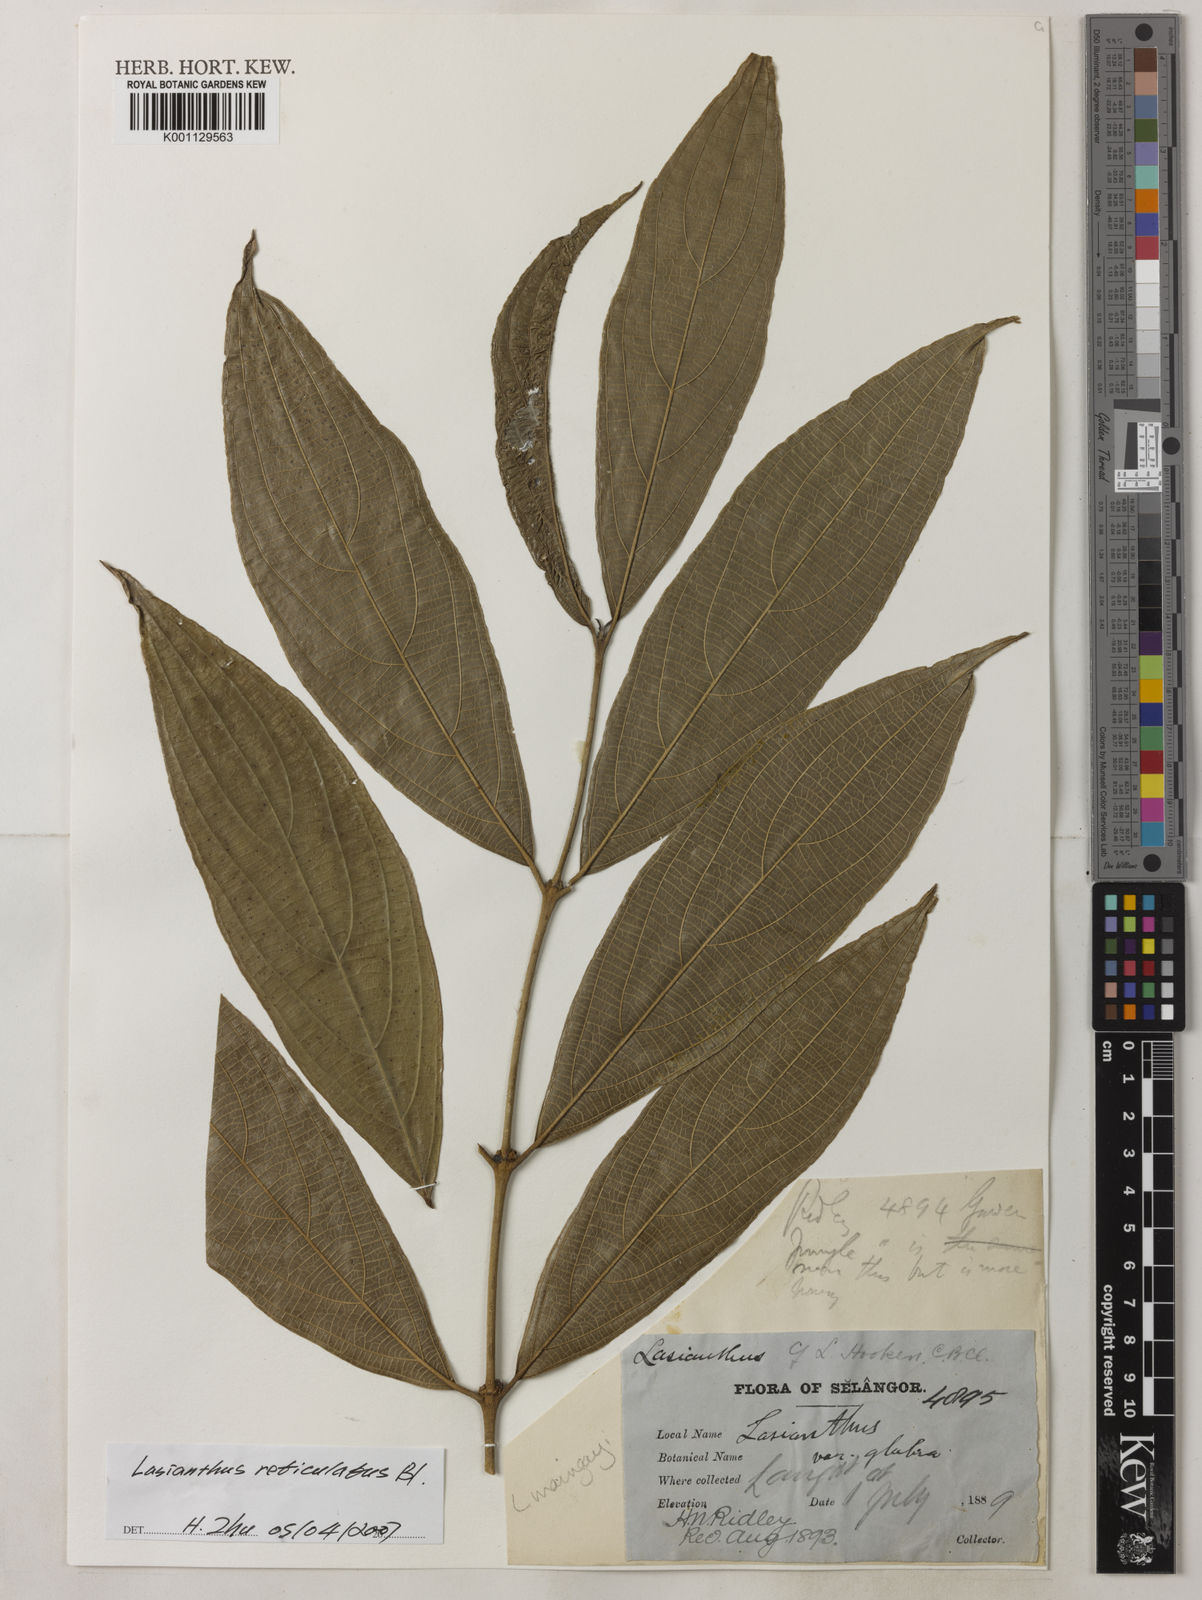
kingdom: Plantae
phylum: Tracheophyta
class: Magnoliopsida
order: Gentianales
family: Rubiaceae
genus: Lasianthus
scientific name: Lasianthus reticulatus
